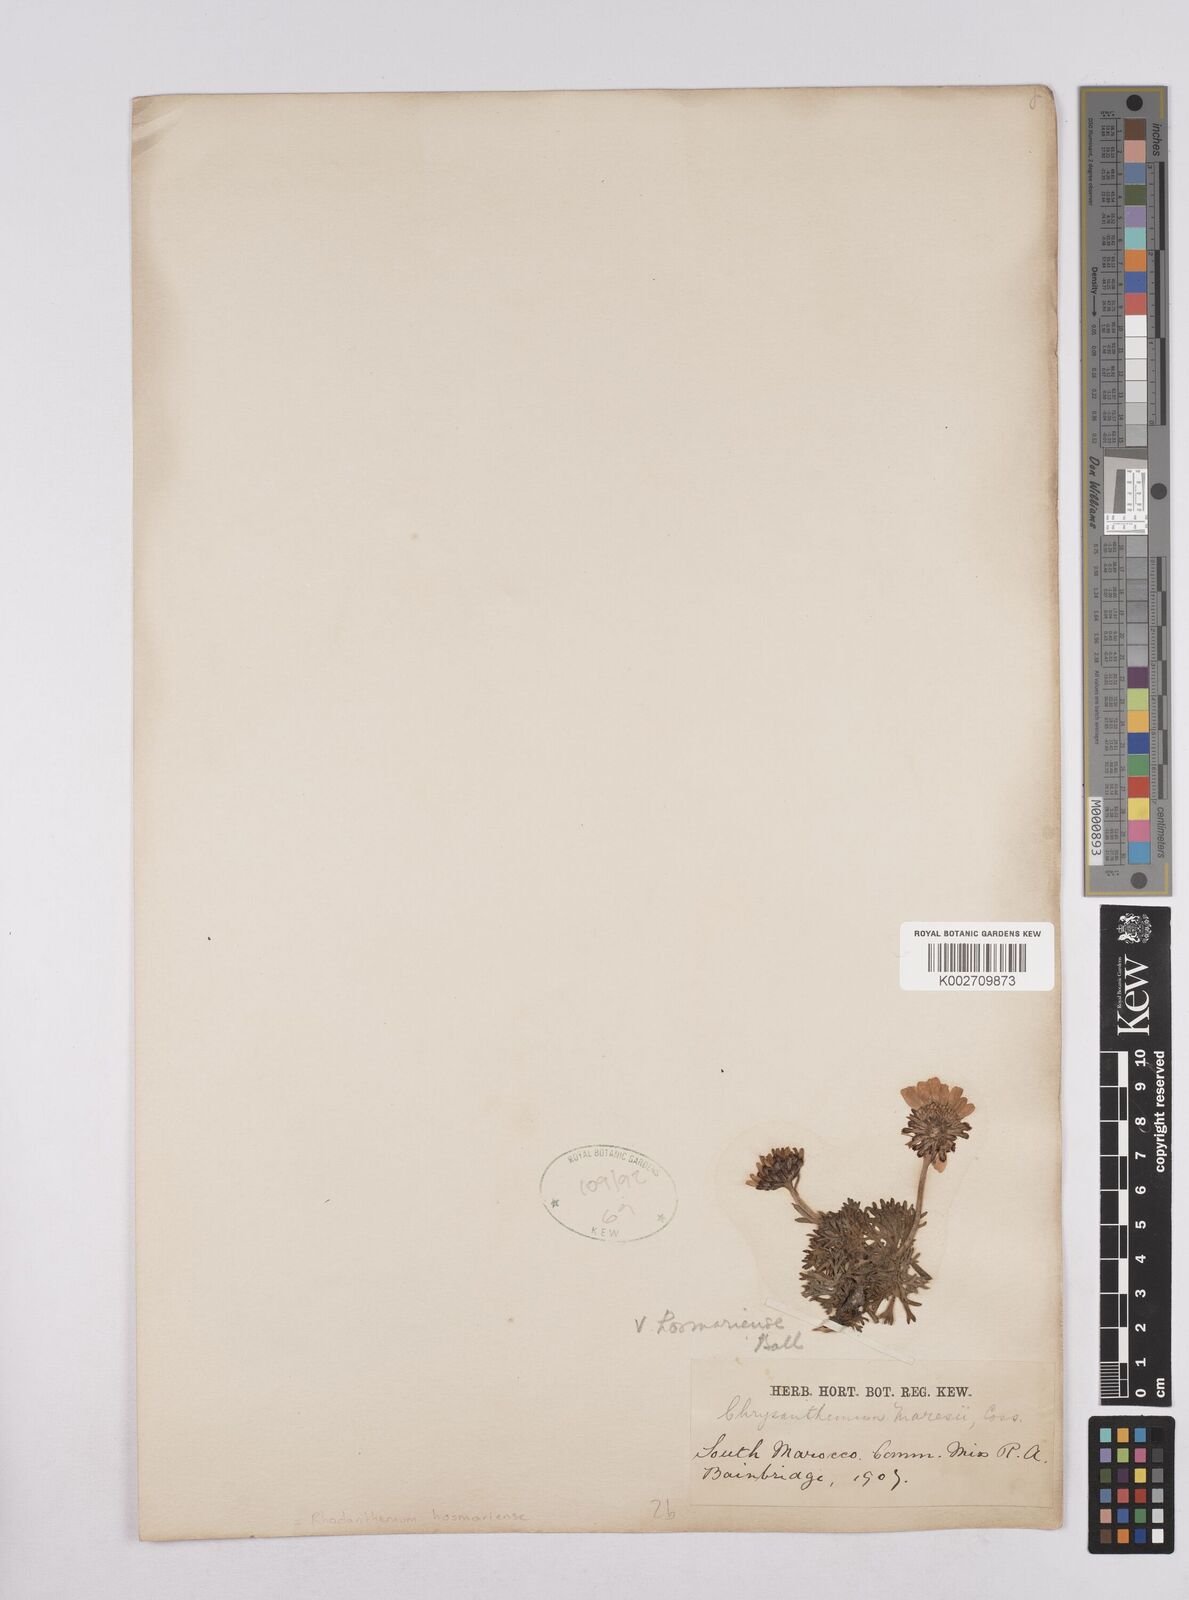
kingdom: Plantae
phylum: Tracheophyta
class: Magnoliopsida
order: Asterales
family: Asteraceae
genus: Rhodanthemum
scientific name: Rhodanthemum maresii
